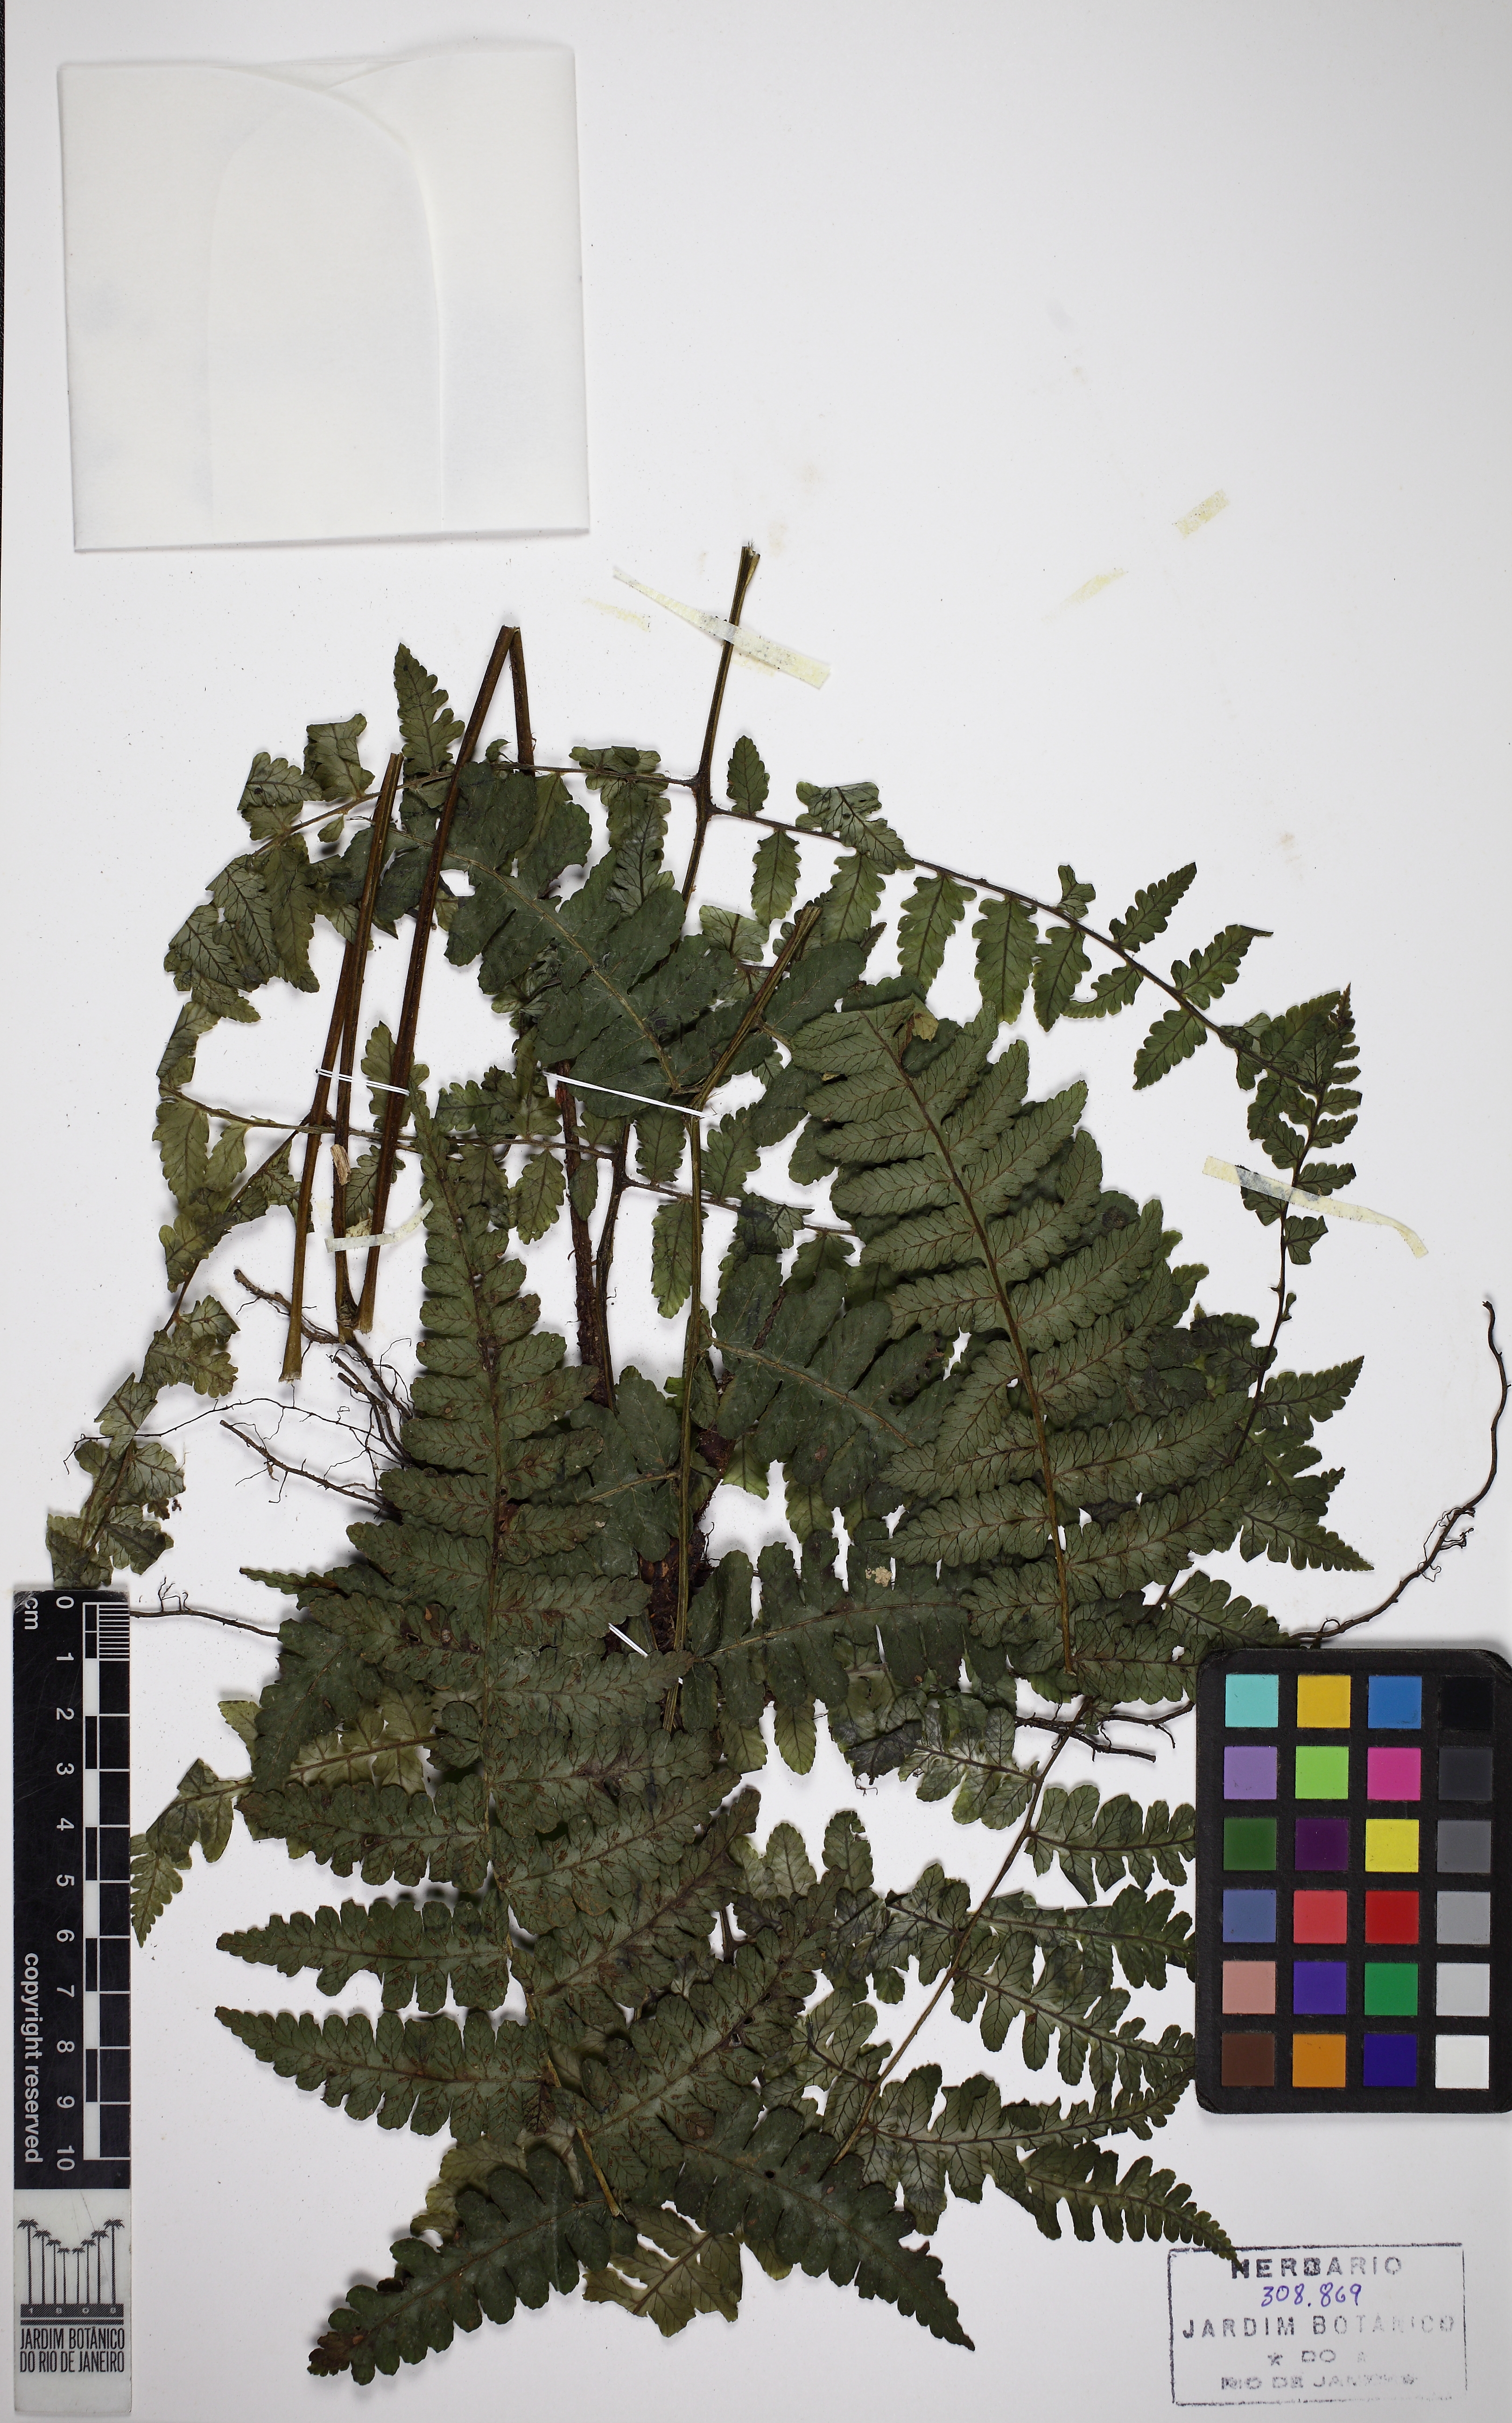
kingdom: Plantae
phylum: Tracheophyta
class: Polypodiopsida
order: Polypodiales
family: Athyriaceae
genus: Diplazium
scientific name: Diplazium leptocarpon
